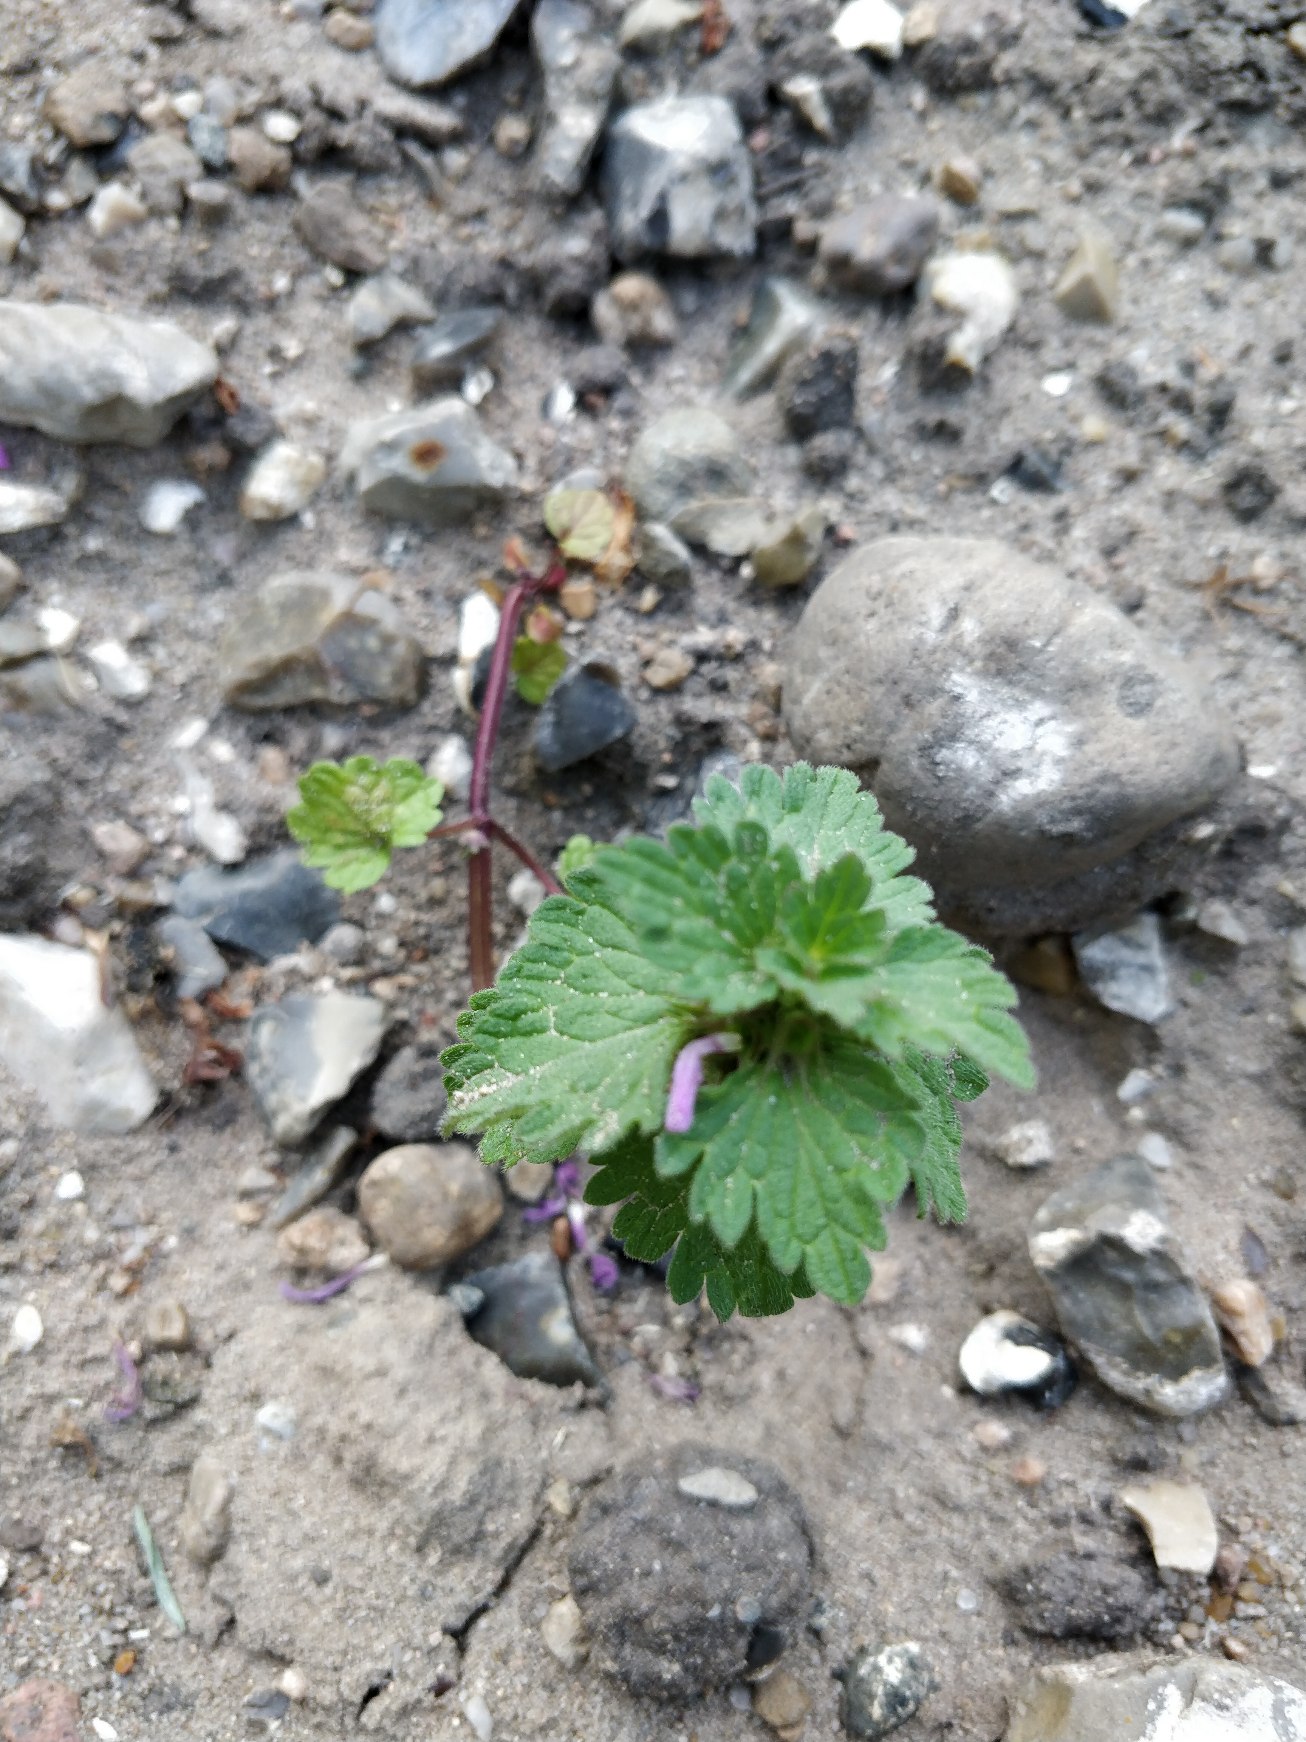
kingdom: Plantae
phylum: Tracheophyta
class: Magnoliopsida
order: Lamiales
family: Lamiaceae
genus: Lamium
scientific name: Lamium hybridum
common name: Fliget tvetand
